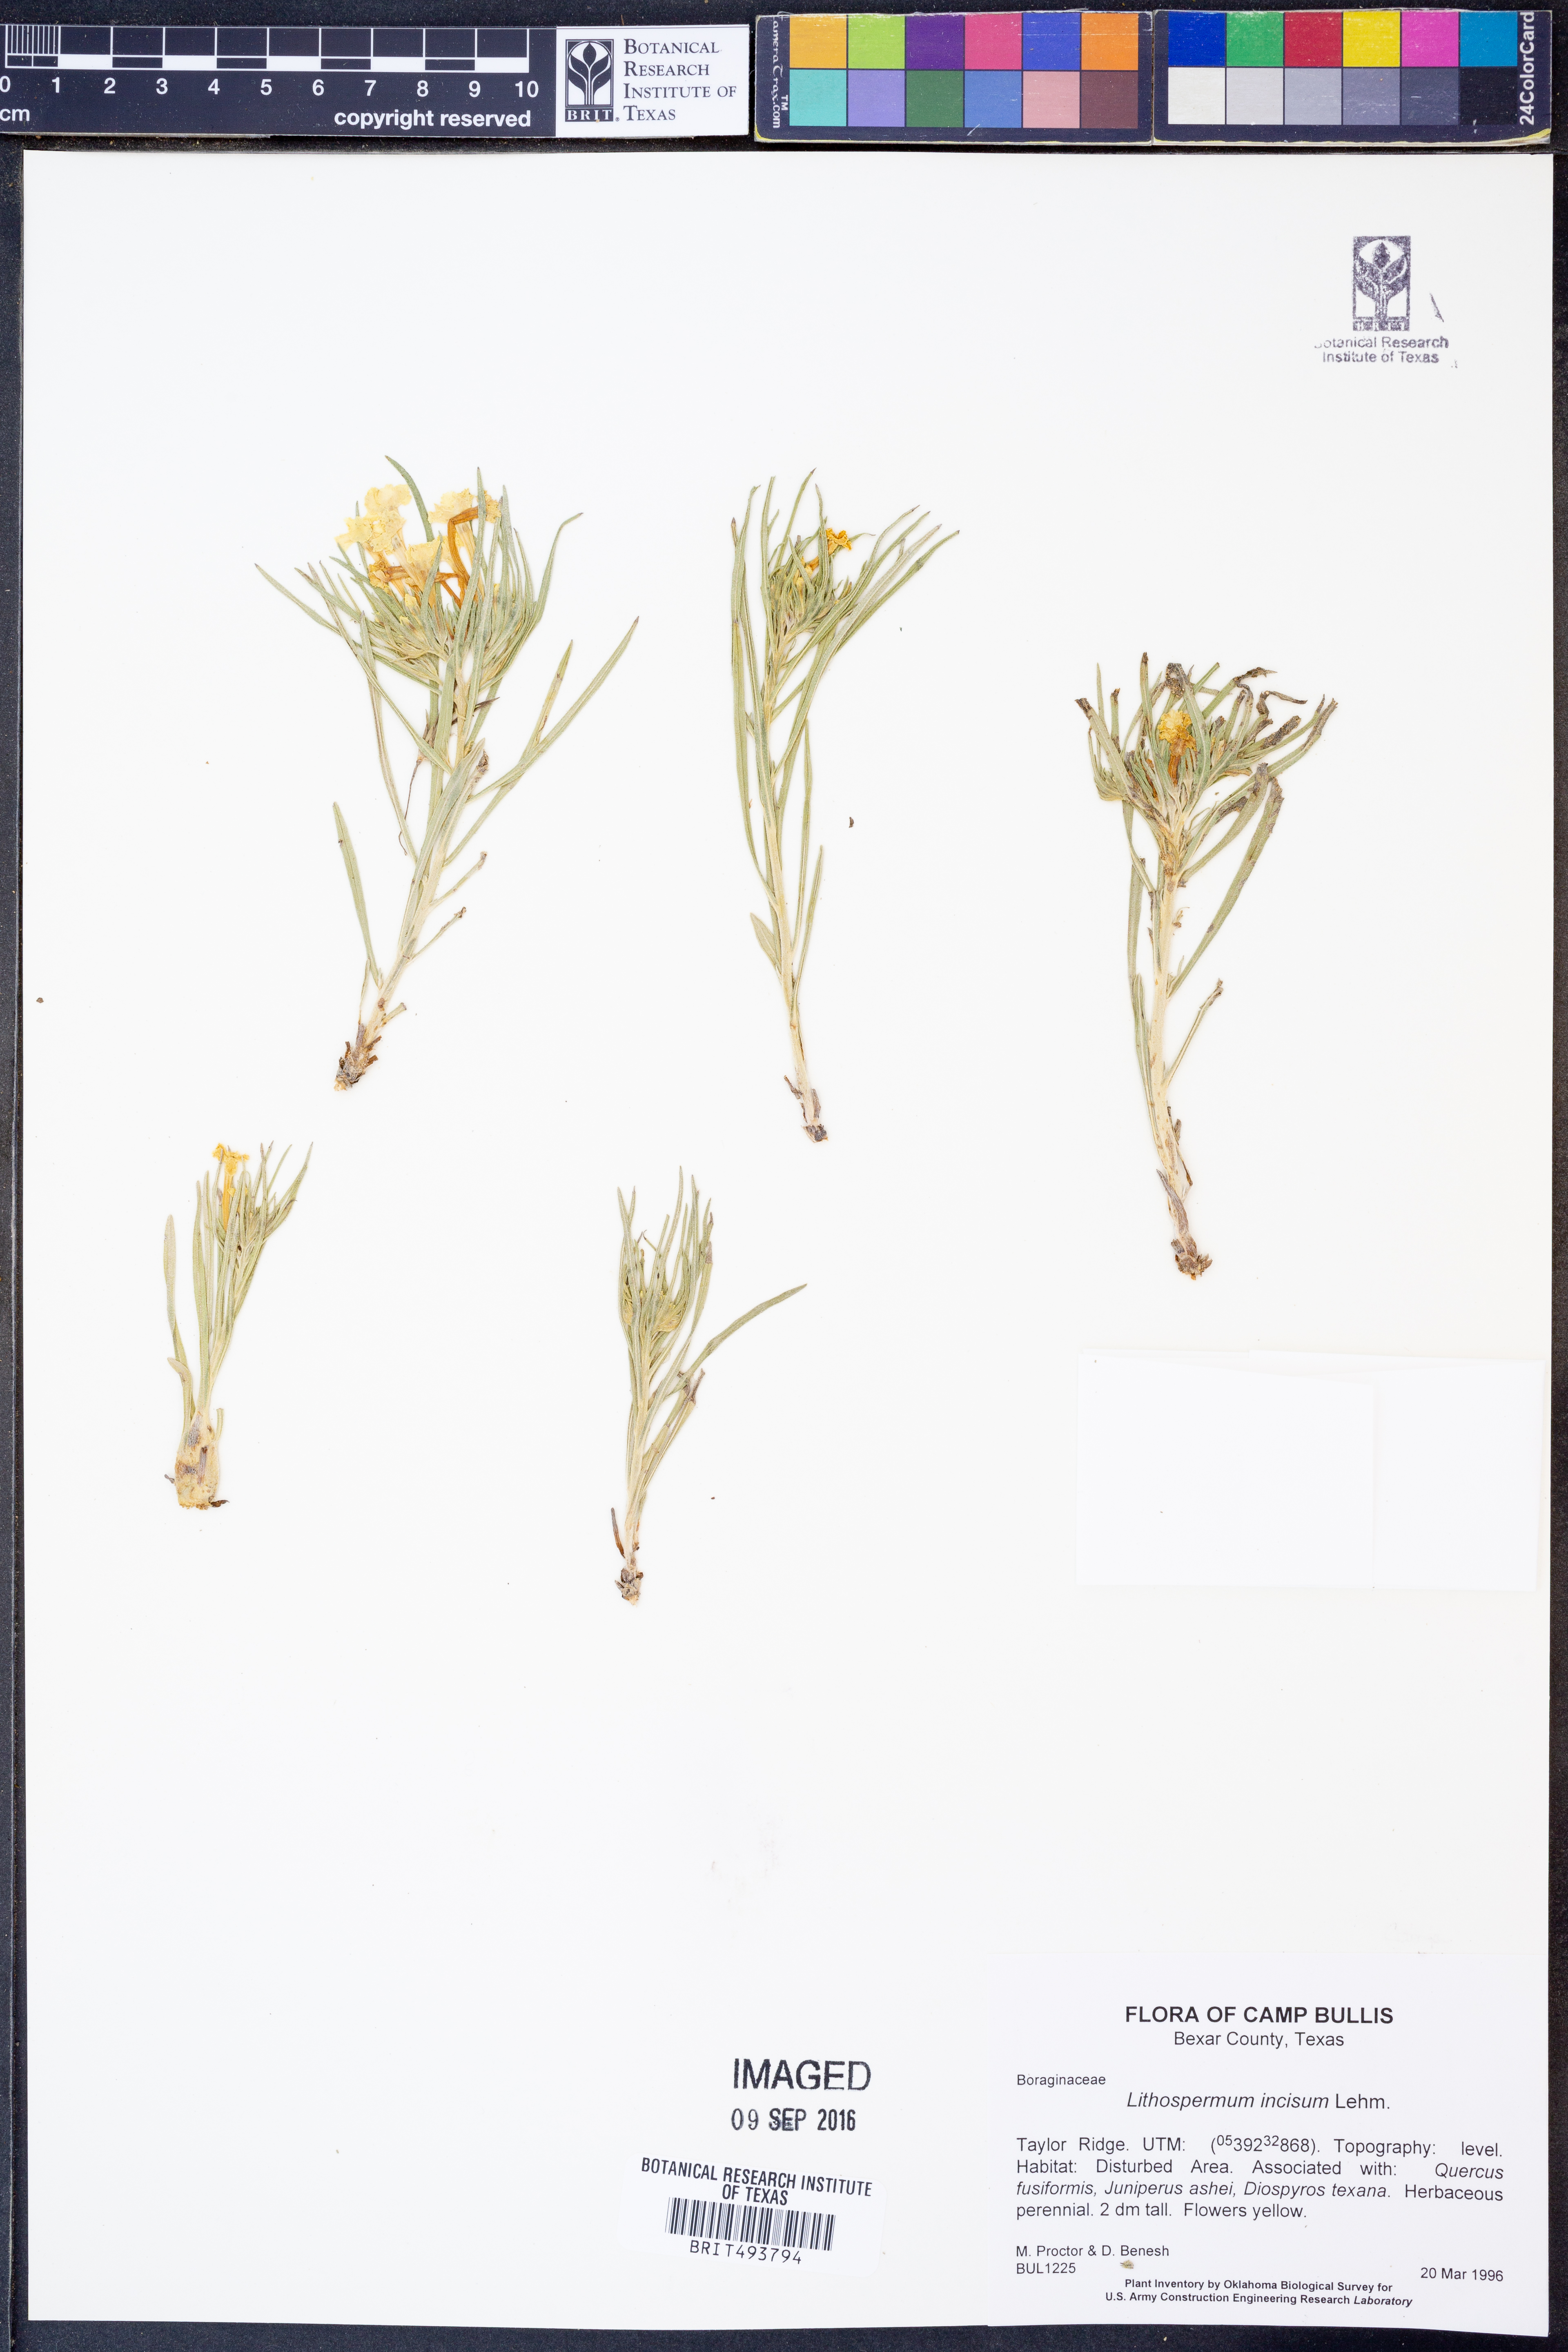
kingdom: Plantae
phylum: Tracheophyta
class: Magnoliopsida
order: Boraginales
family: Boraginaceae
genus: Lithospermum
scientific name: Lithospermum incisum
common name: Fringed gromwell
